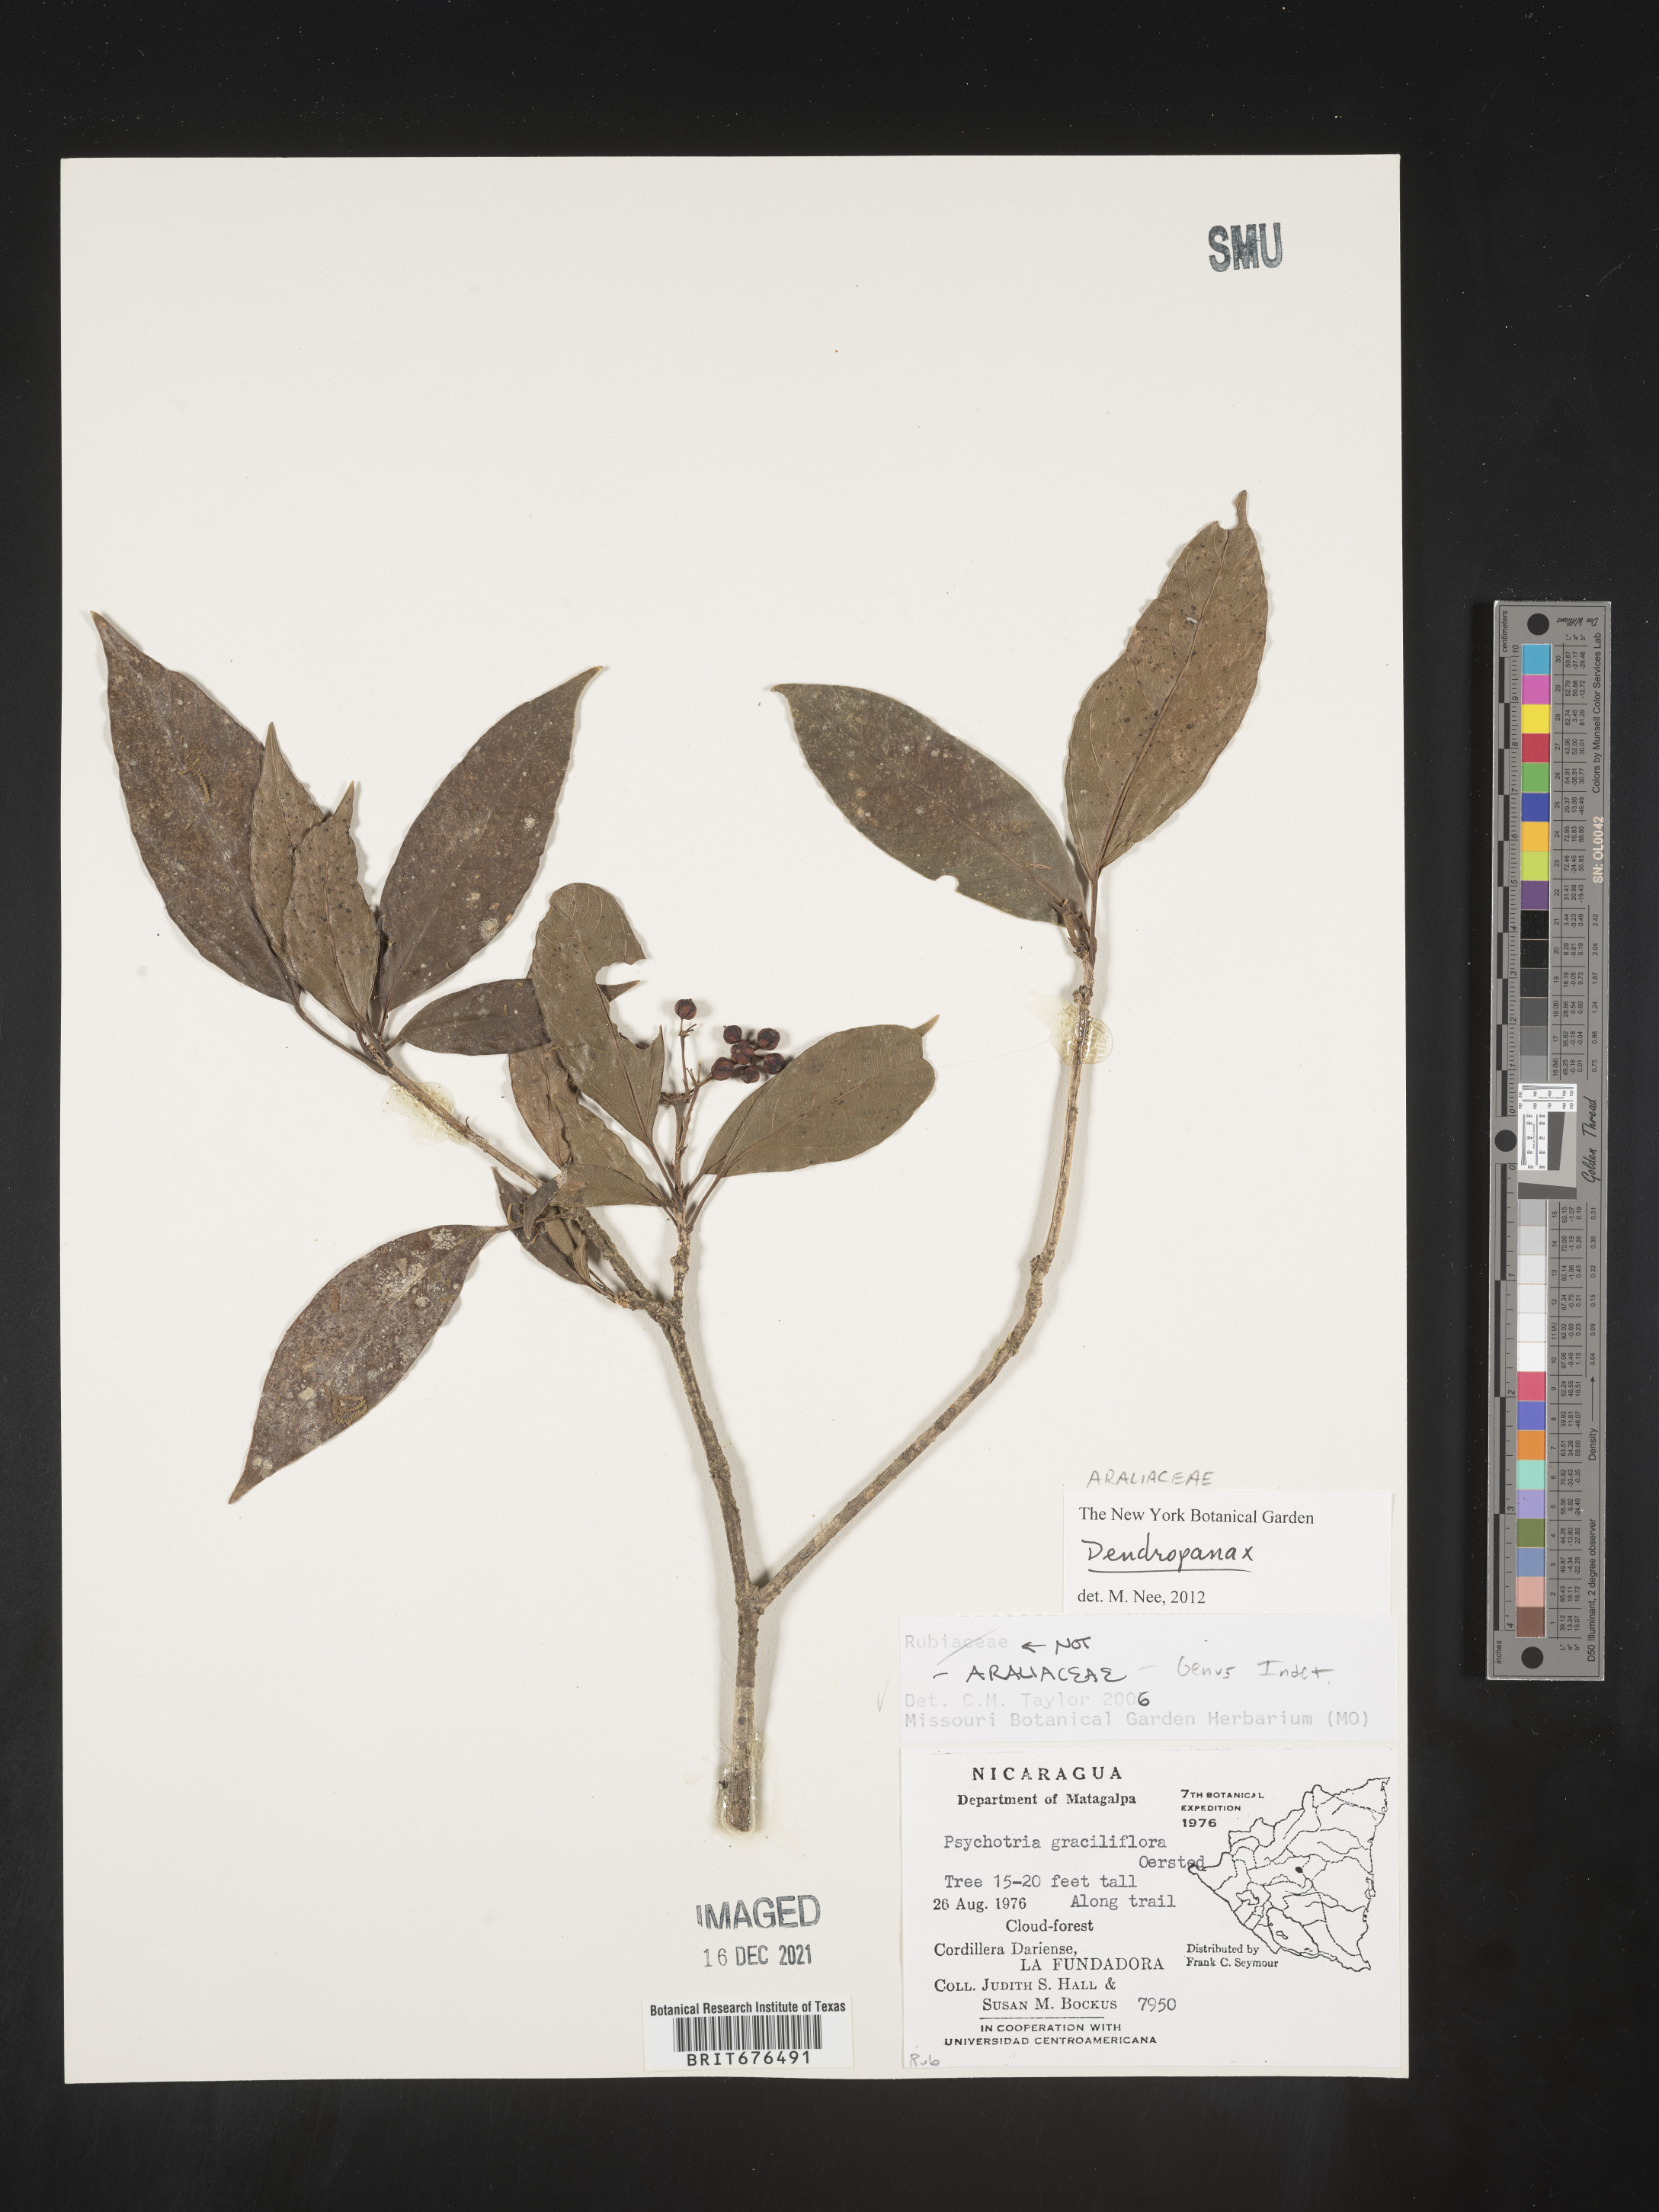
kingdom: Plantae
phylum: Tracheophyta
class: Magnoliopsida
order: Apiales
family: Araliaceae
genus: Dendropanax
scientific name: Dendropanax
